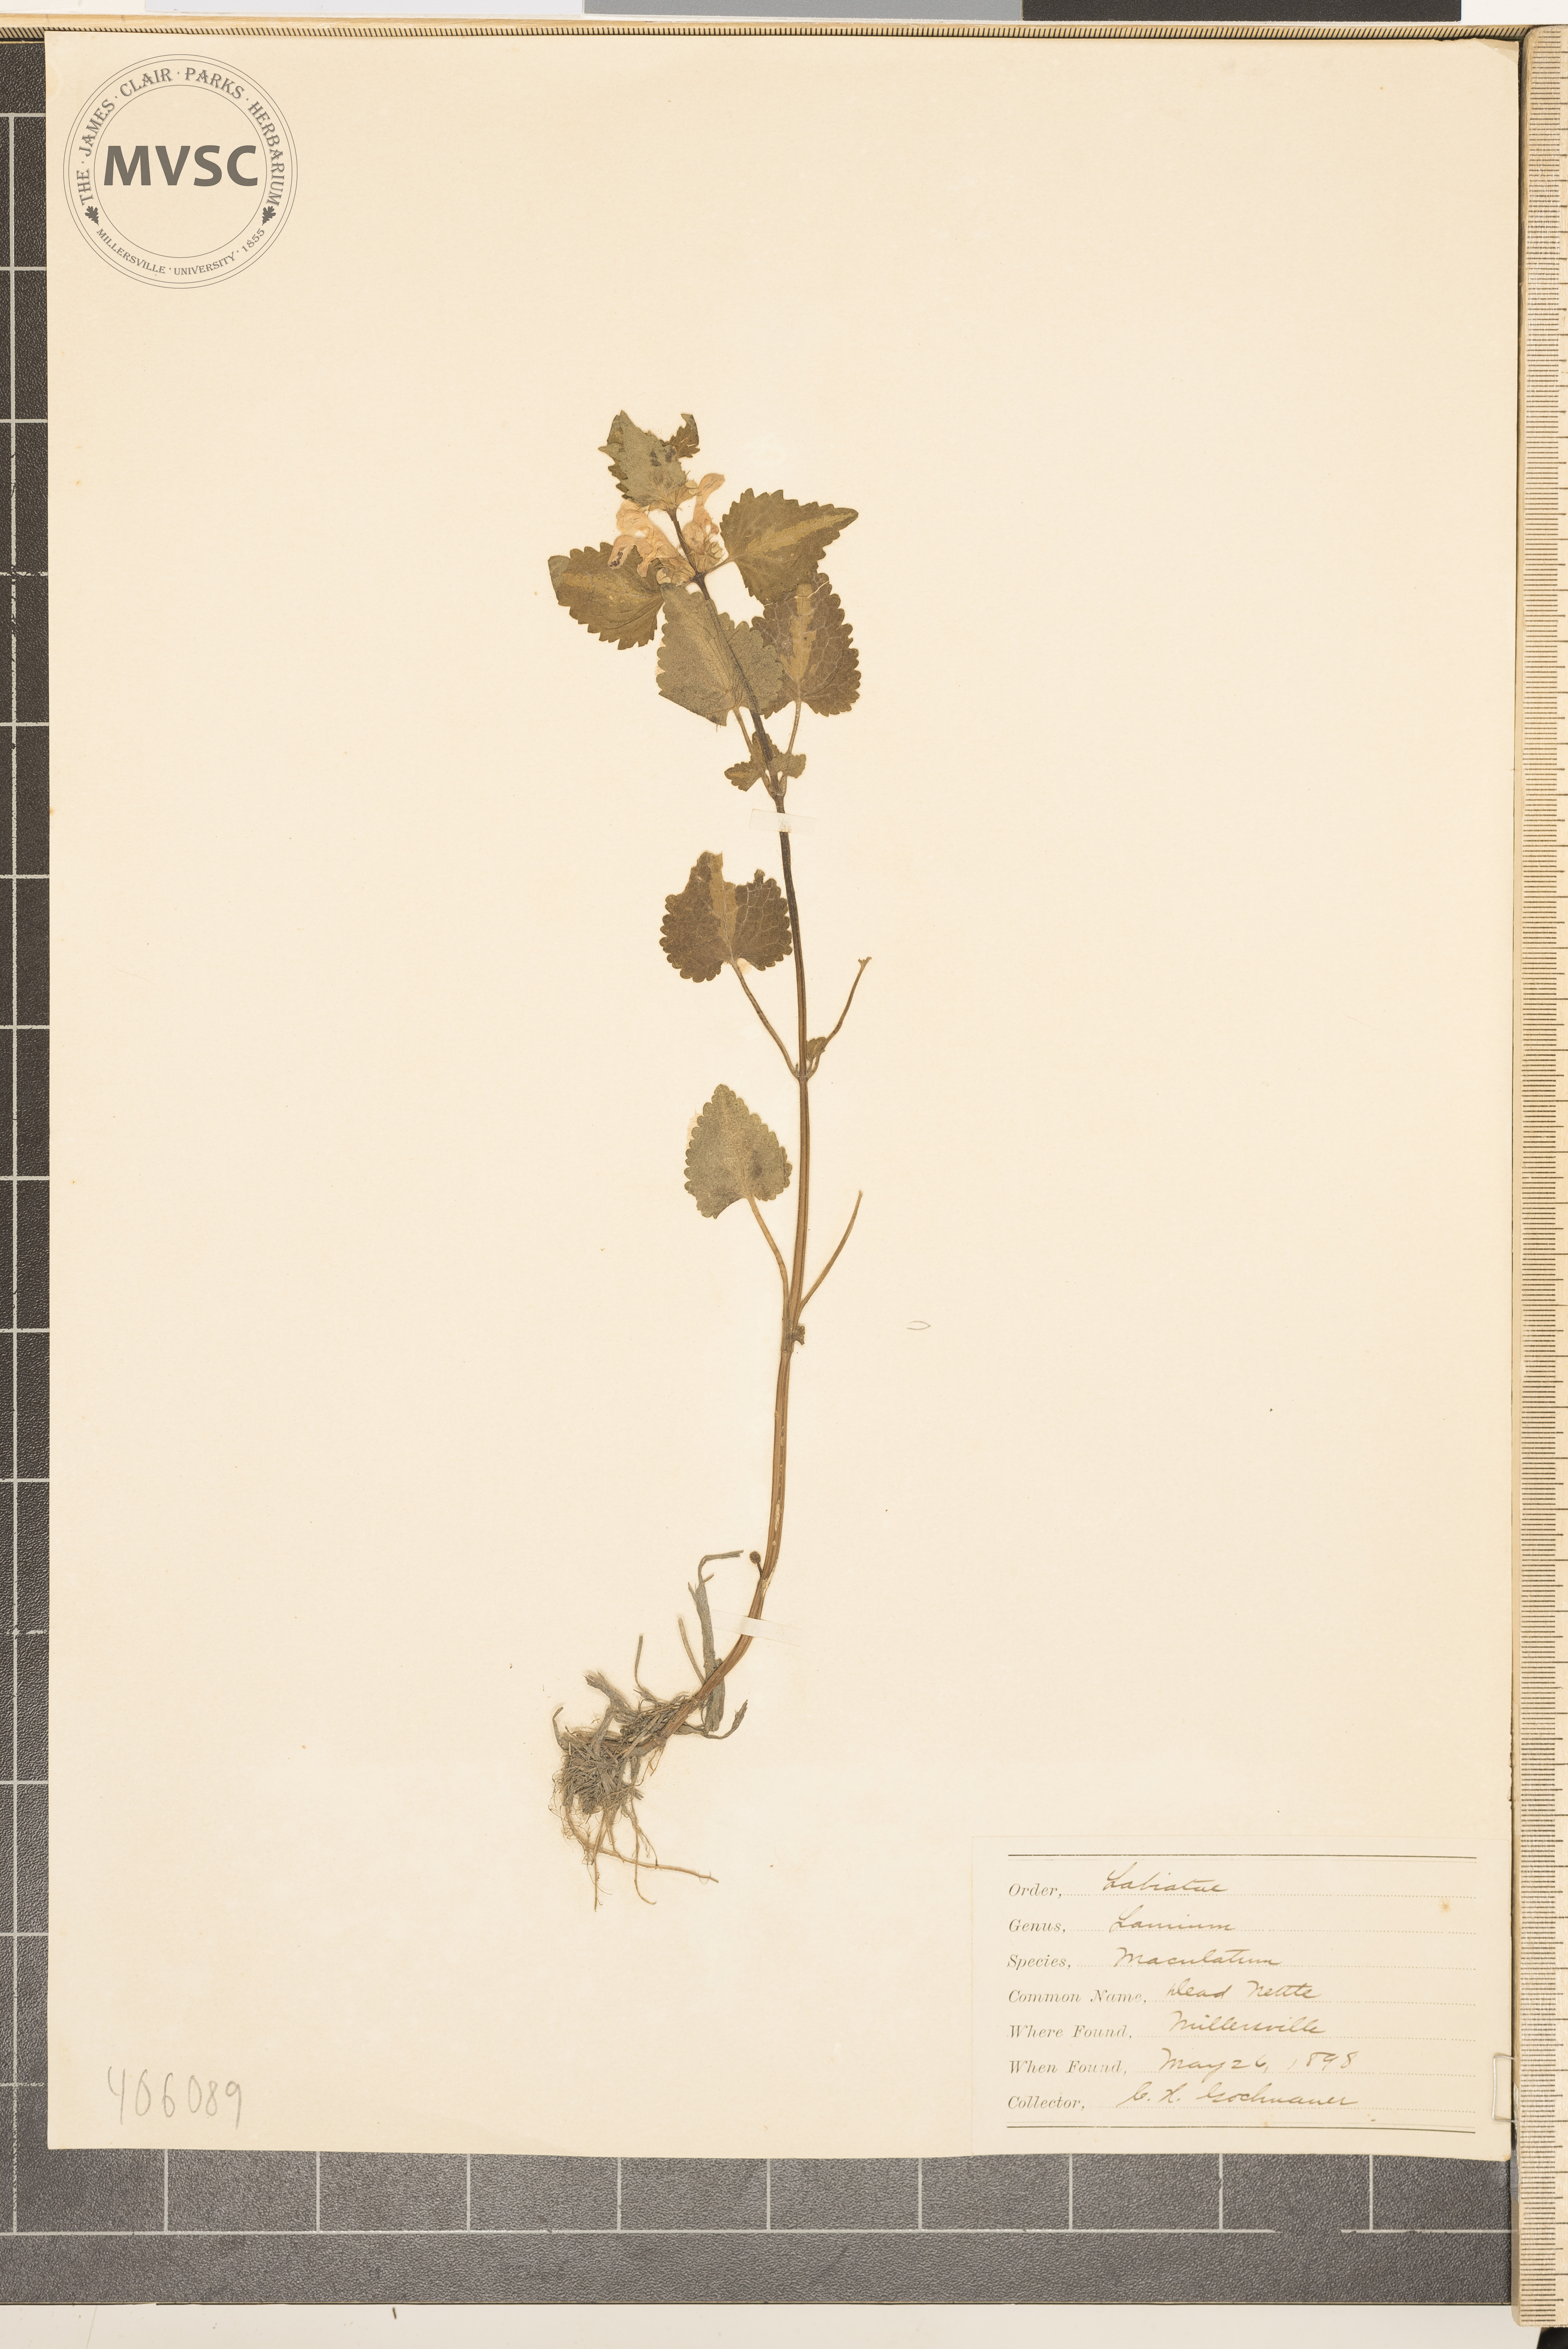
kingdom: Plantae
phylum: Tracheophyta
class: Magnoliopsida
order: Lamiales
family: Lamiaceae
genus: Lamium
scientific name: Lamium maculatum
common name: spotted dead-nettle
